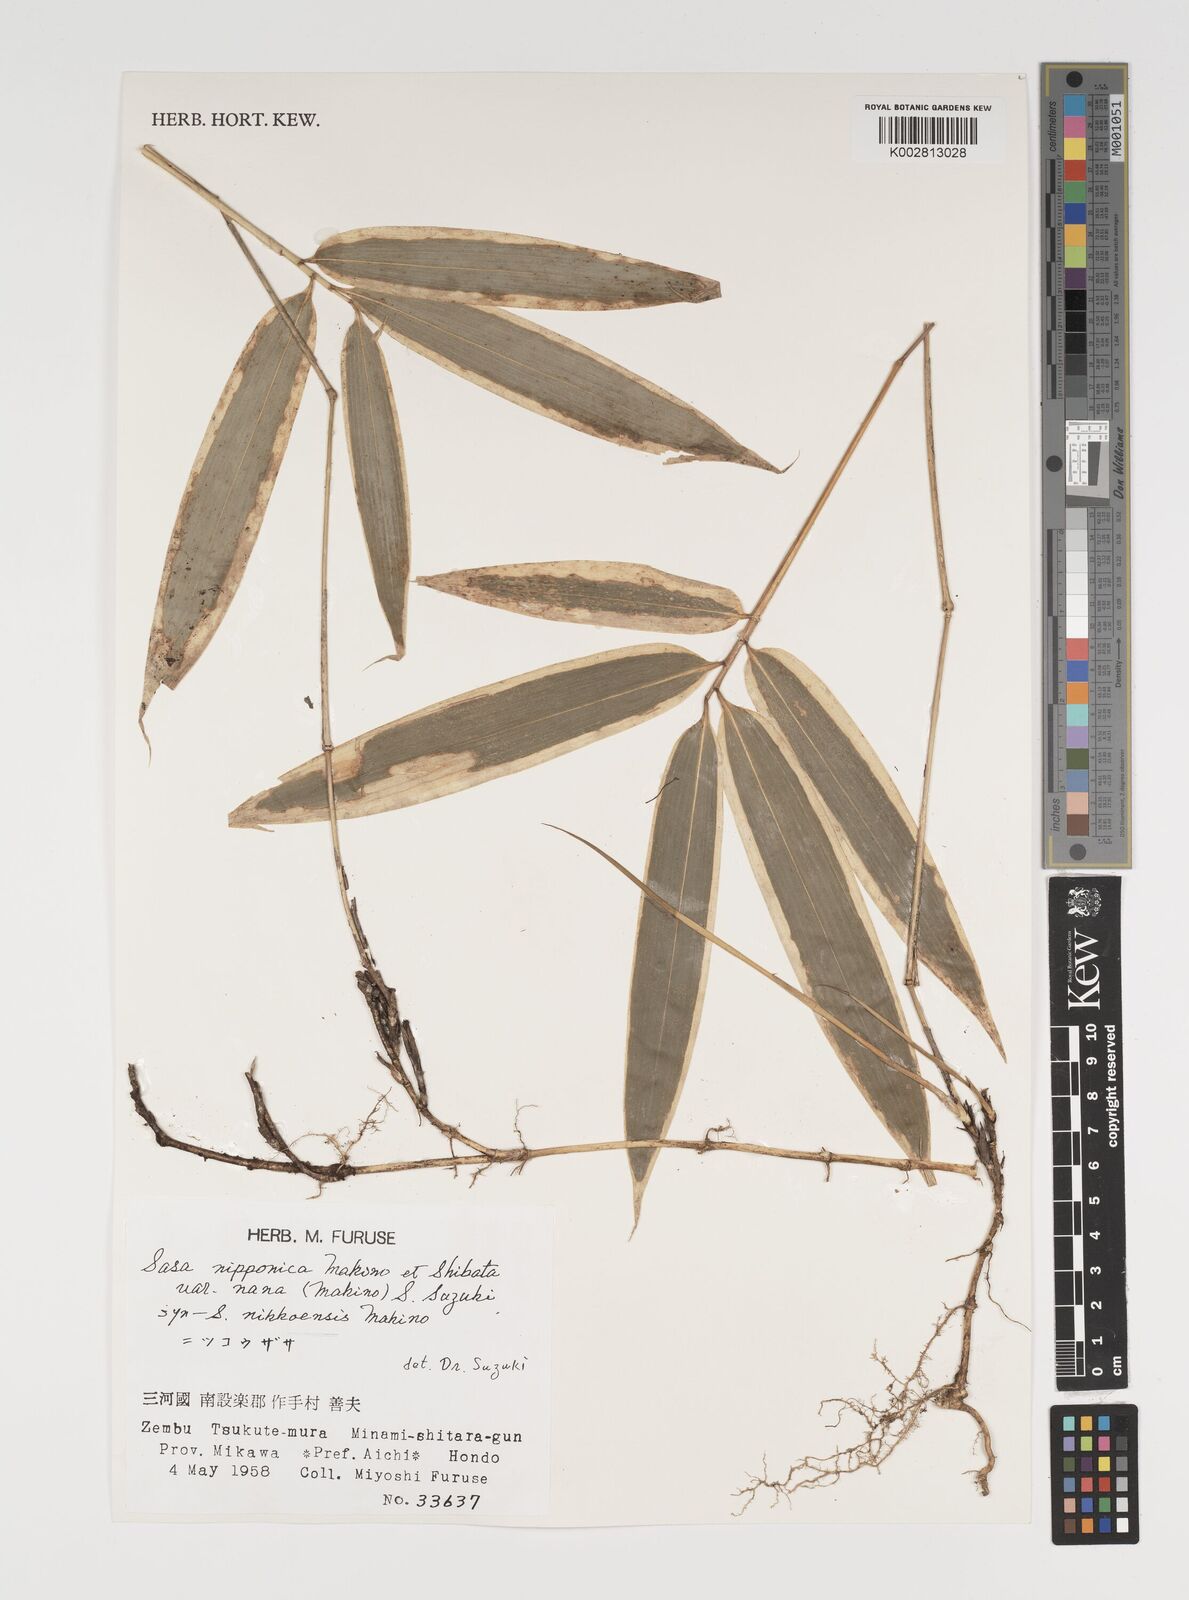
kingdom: Plantae
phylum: Tracheophyta
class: Liliopsida
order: Poales
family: Poaceae
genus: Sasa
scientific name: Sasa chartacea
